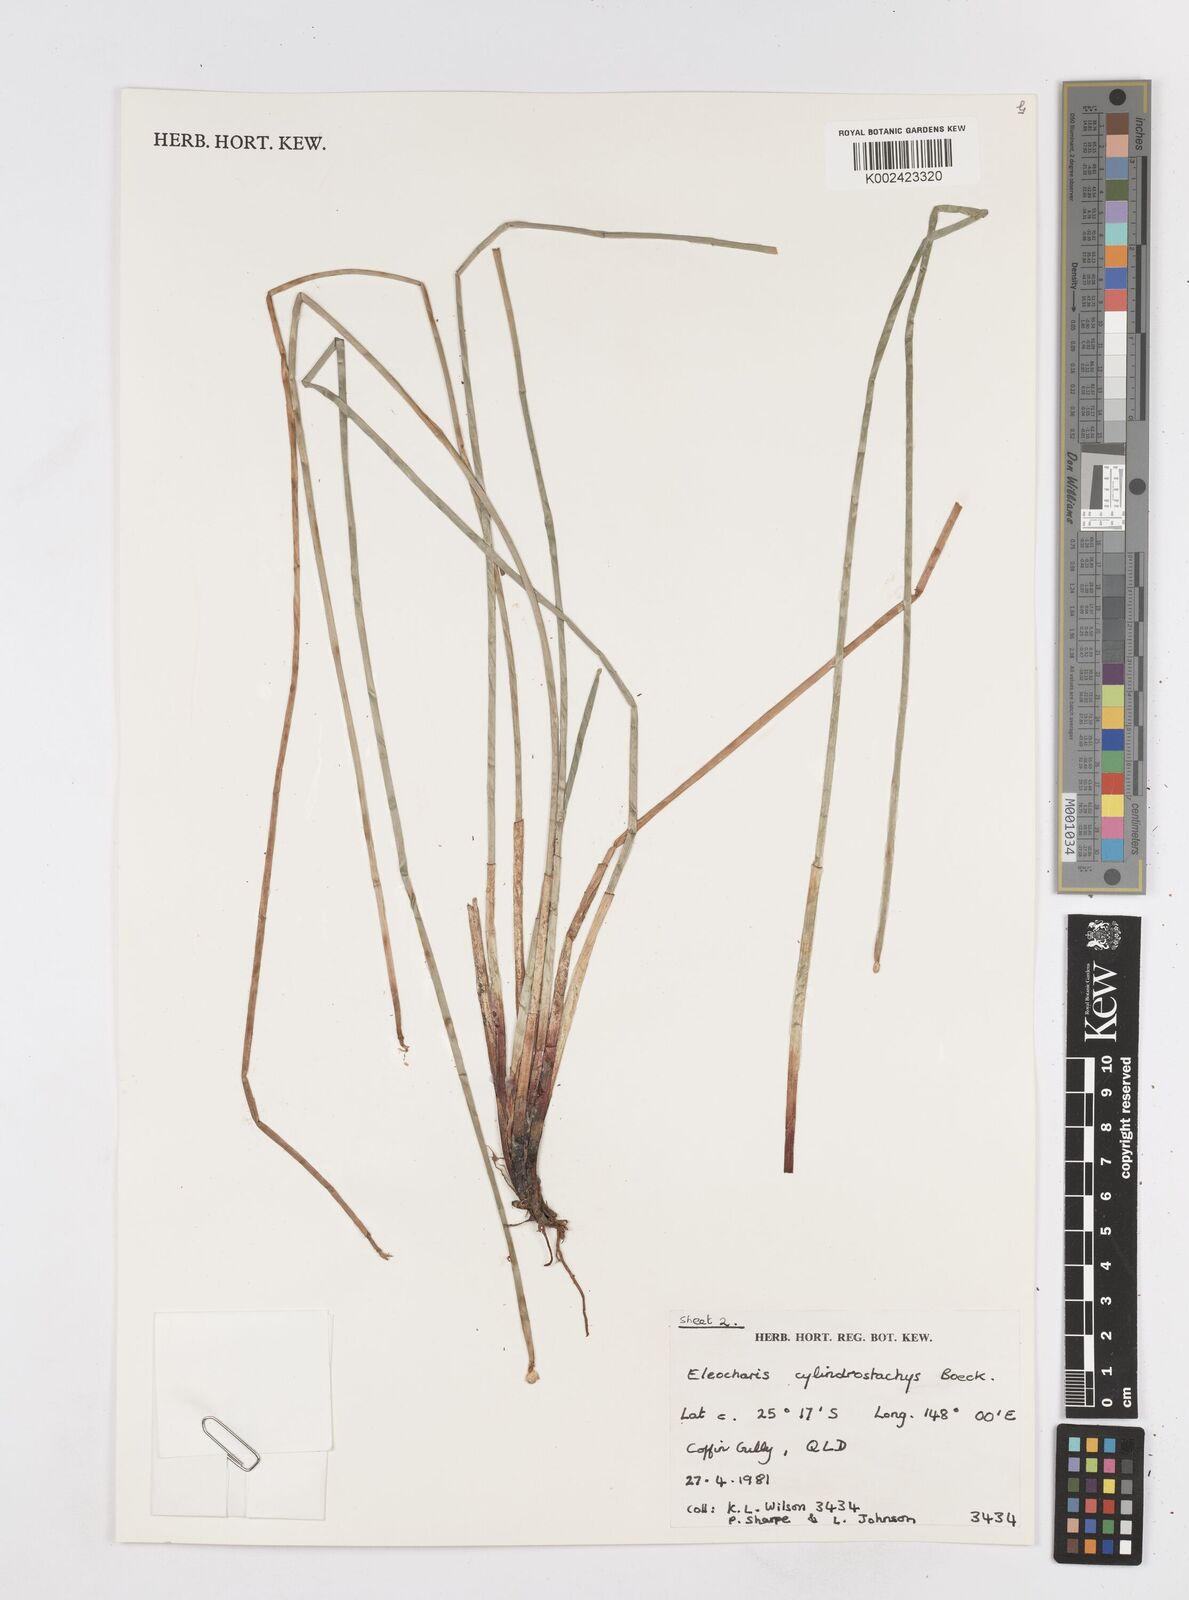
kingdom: Plantae
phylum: Tracheophyta
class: Liliopsida
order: Poales
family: Cyperaceae
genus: Eleocharis
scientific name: Eleocharis cylindrostachys
